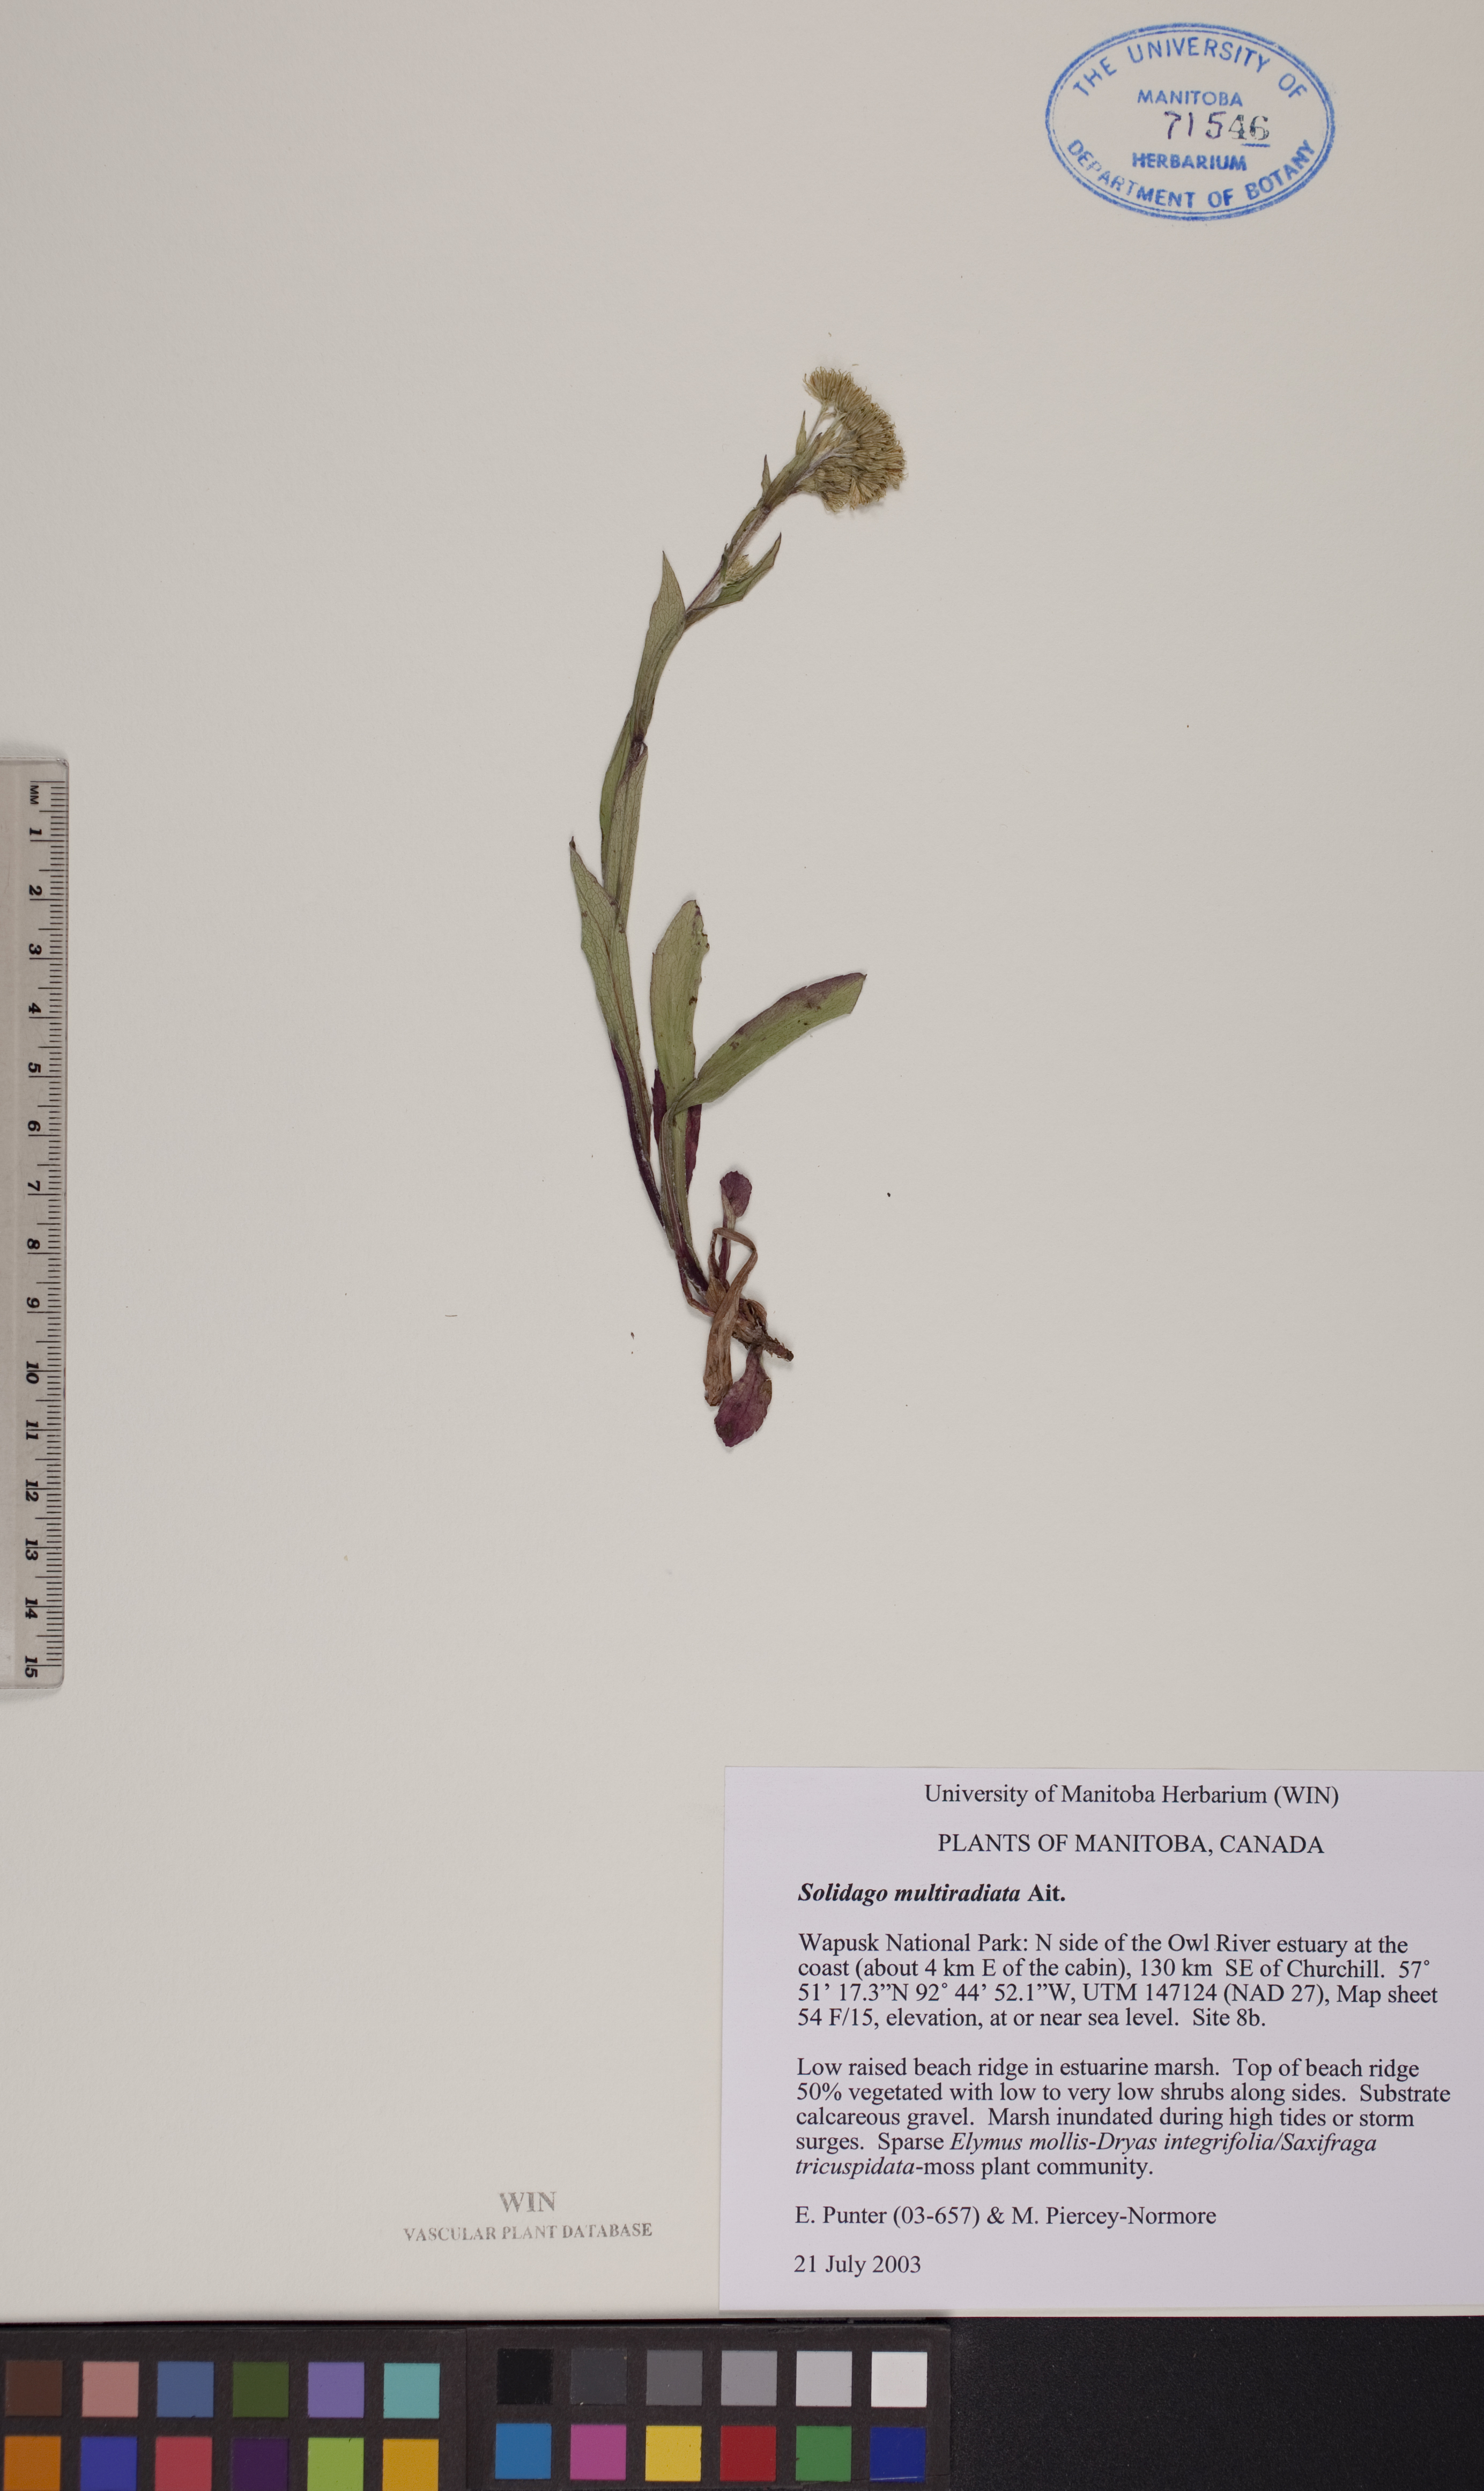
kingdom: Plantae
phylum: Tracheophyta
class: Magnoliopsida
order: Asterales
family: Asteraceae
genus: Solidago
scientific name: Solidago multiradiata
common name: Northern goldenrod
